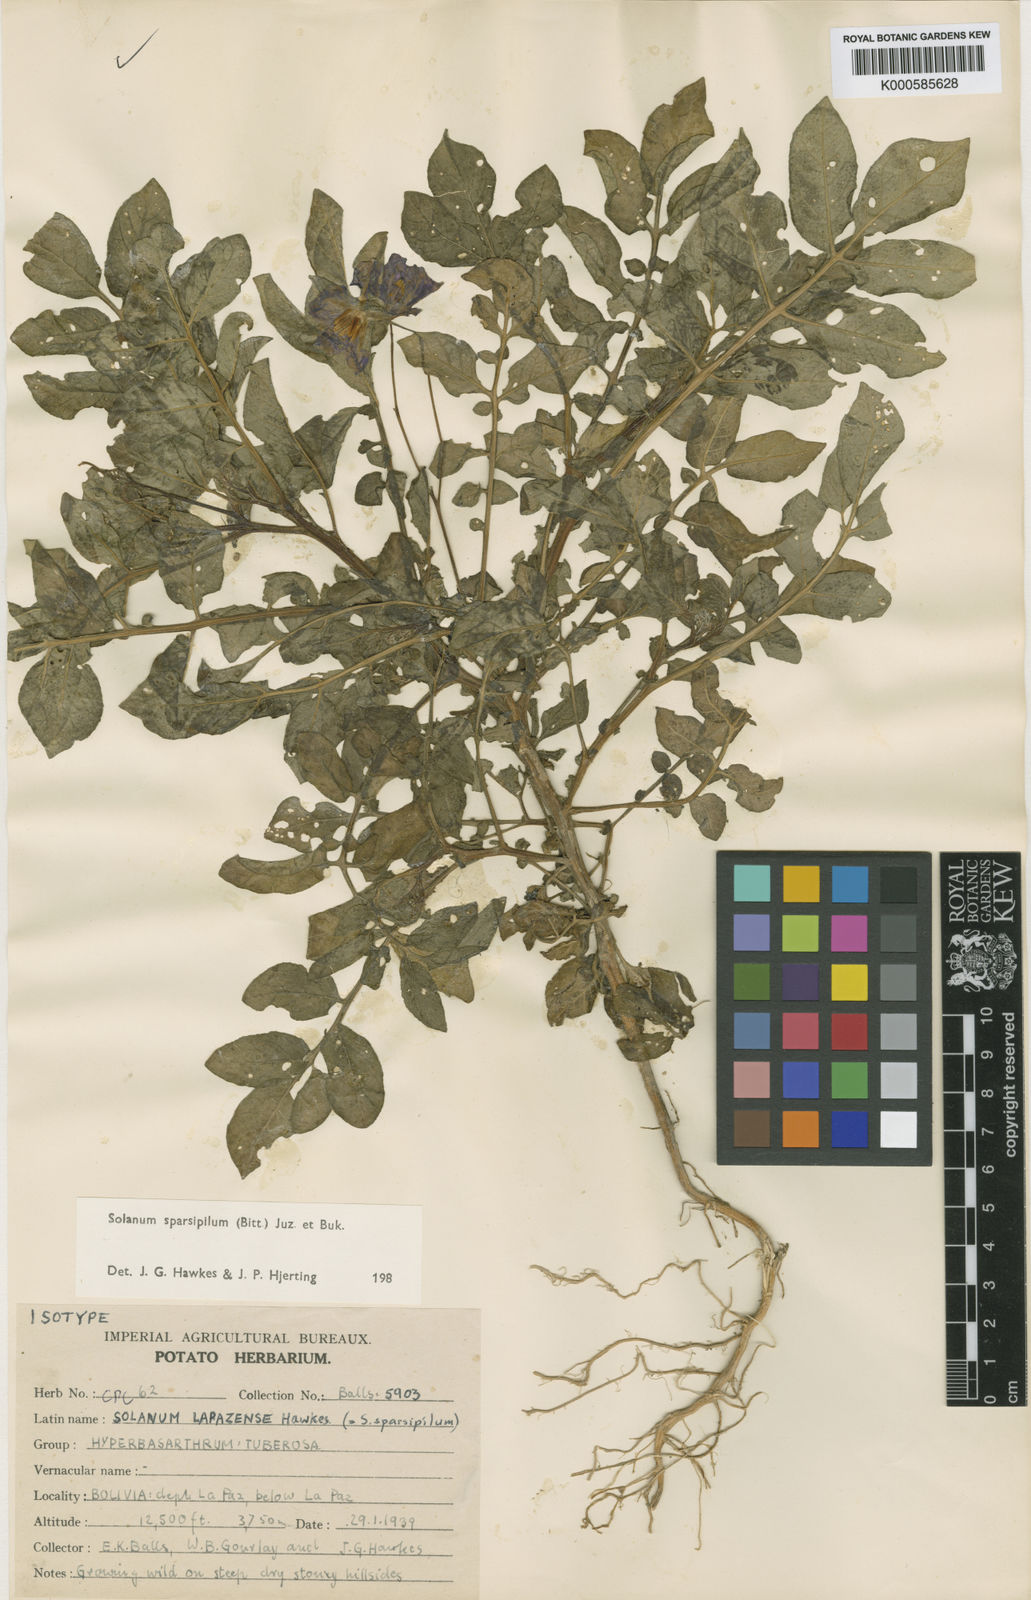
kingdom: Plantae
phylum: Tracheophyta
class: Magnoliopsida
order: Solanales
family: Solanaceae
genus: Solanum
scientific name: Solanum brevicaule
